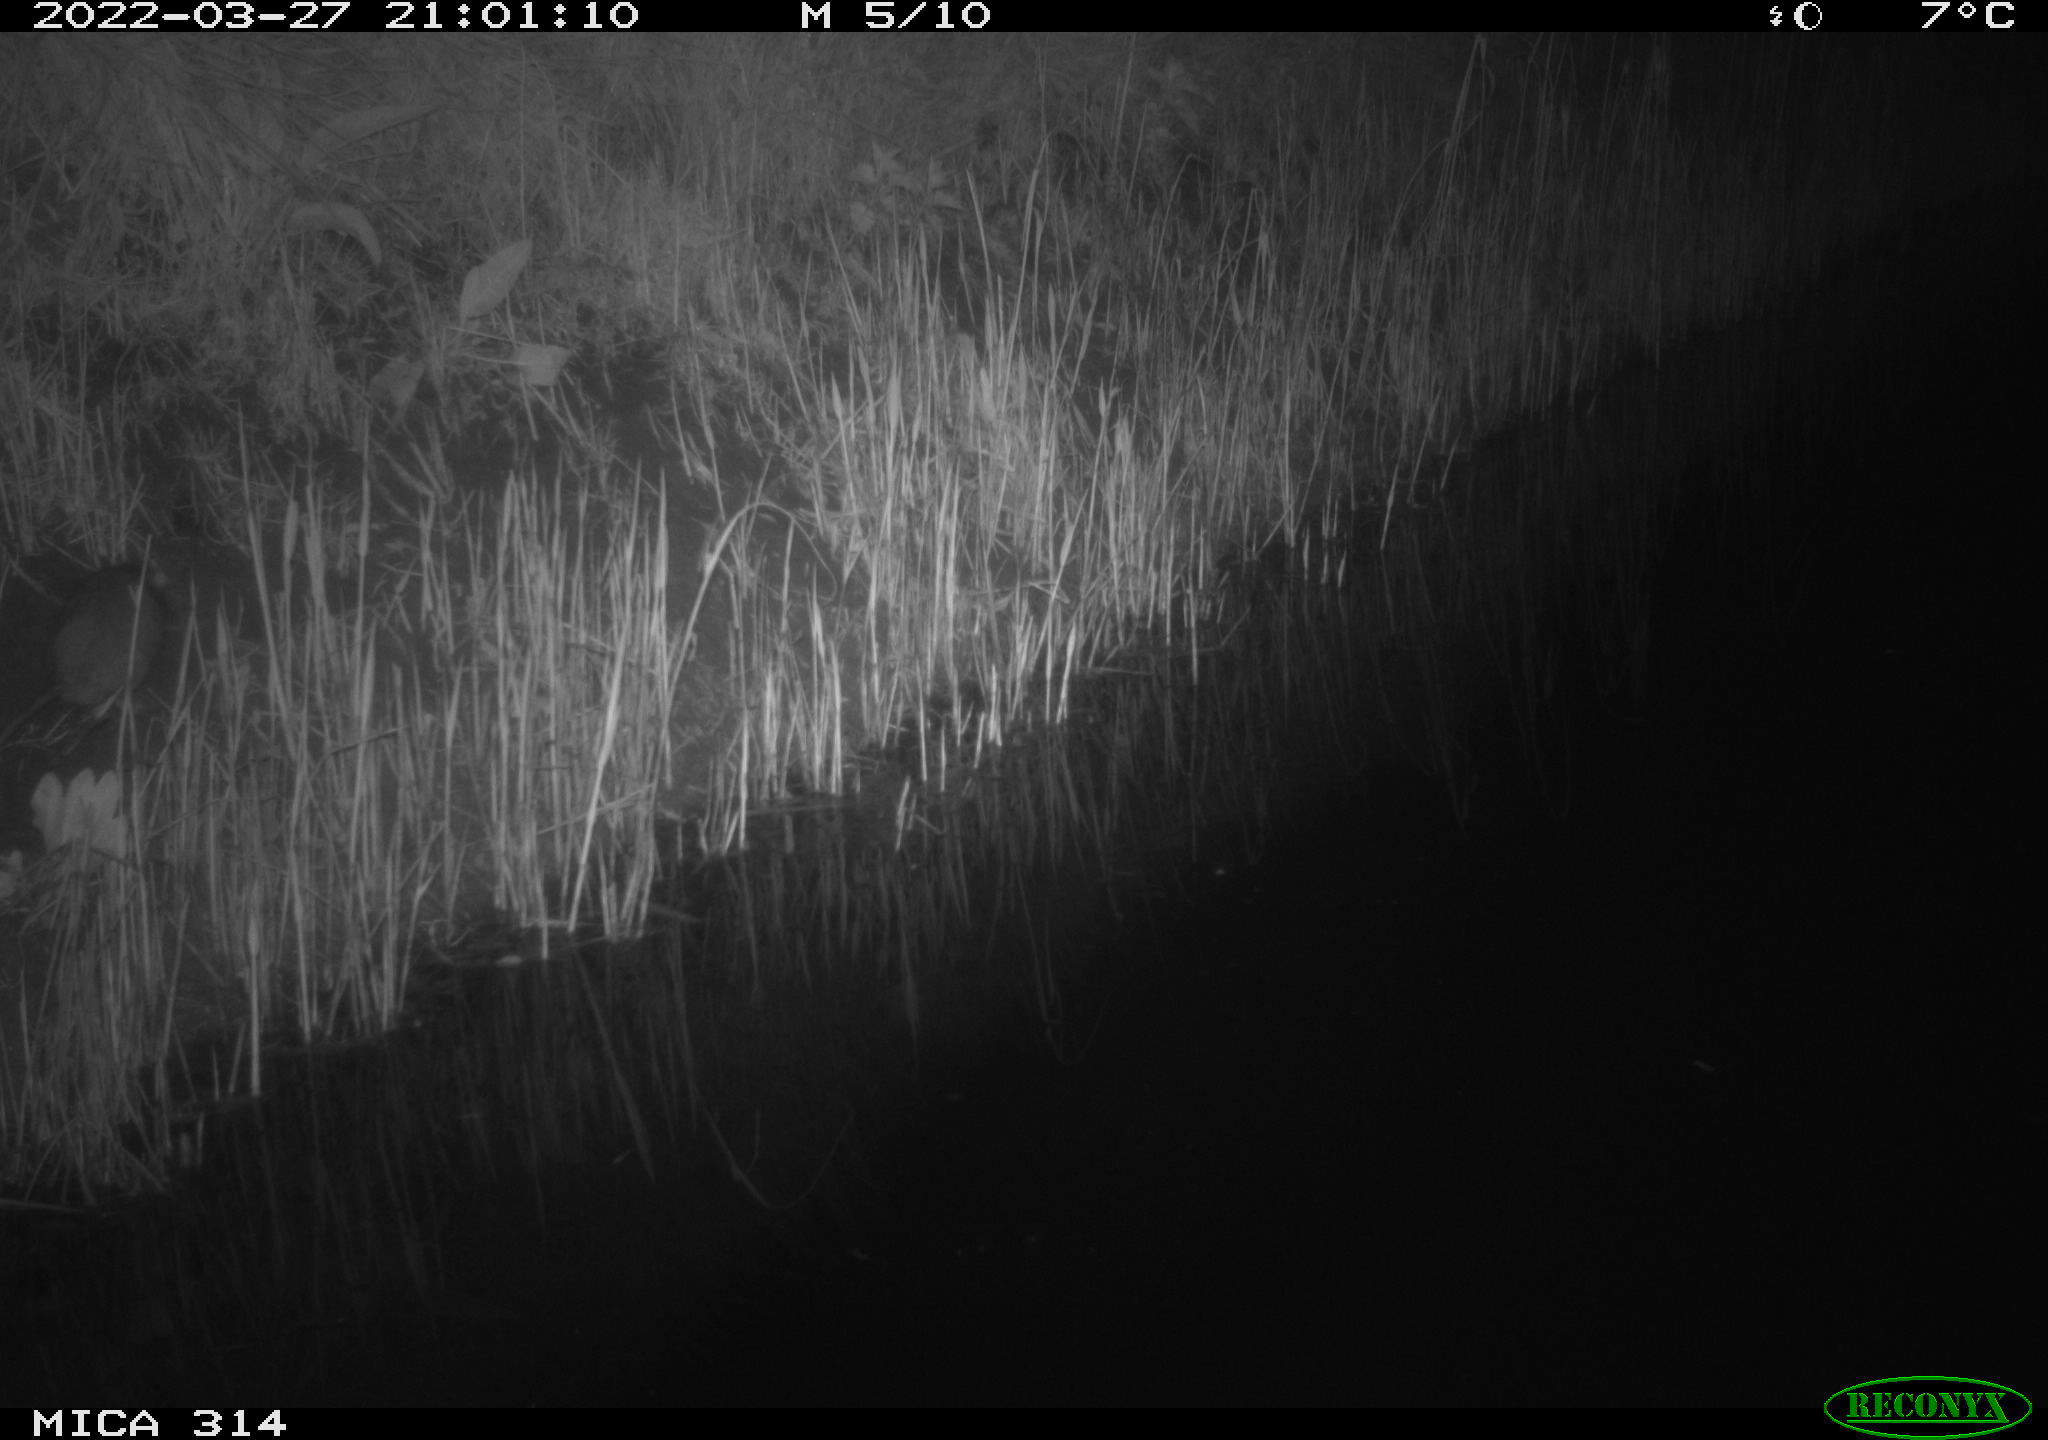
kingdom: Animalia
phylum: Chordata
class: Mammalia
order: Rodentia
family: Muridae
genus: Rattus
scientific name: Rattus norvegicus
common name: Brown rat
